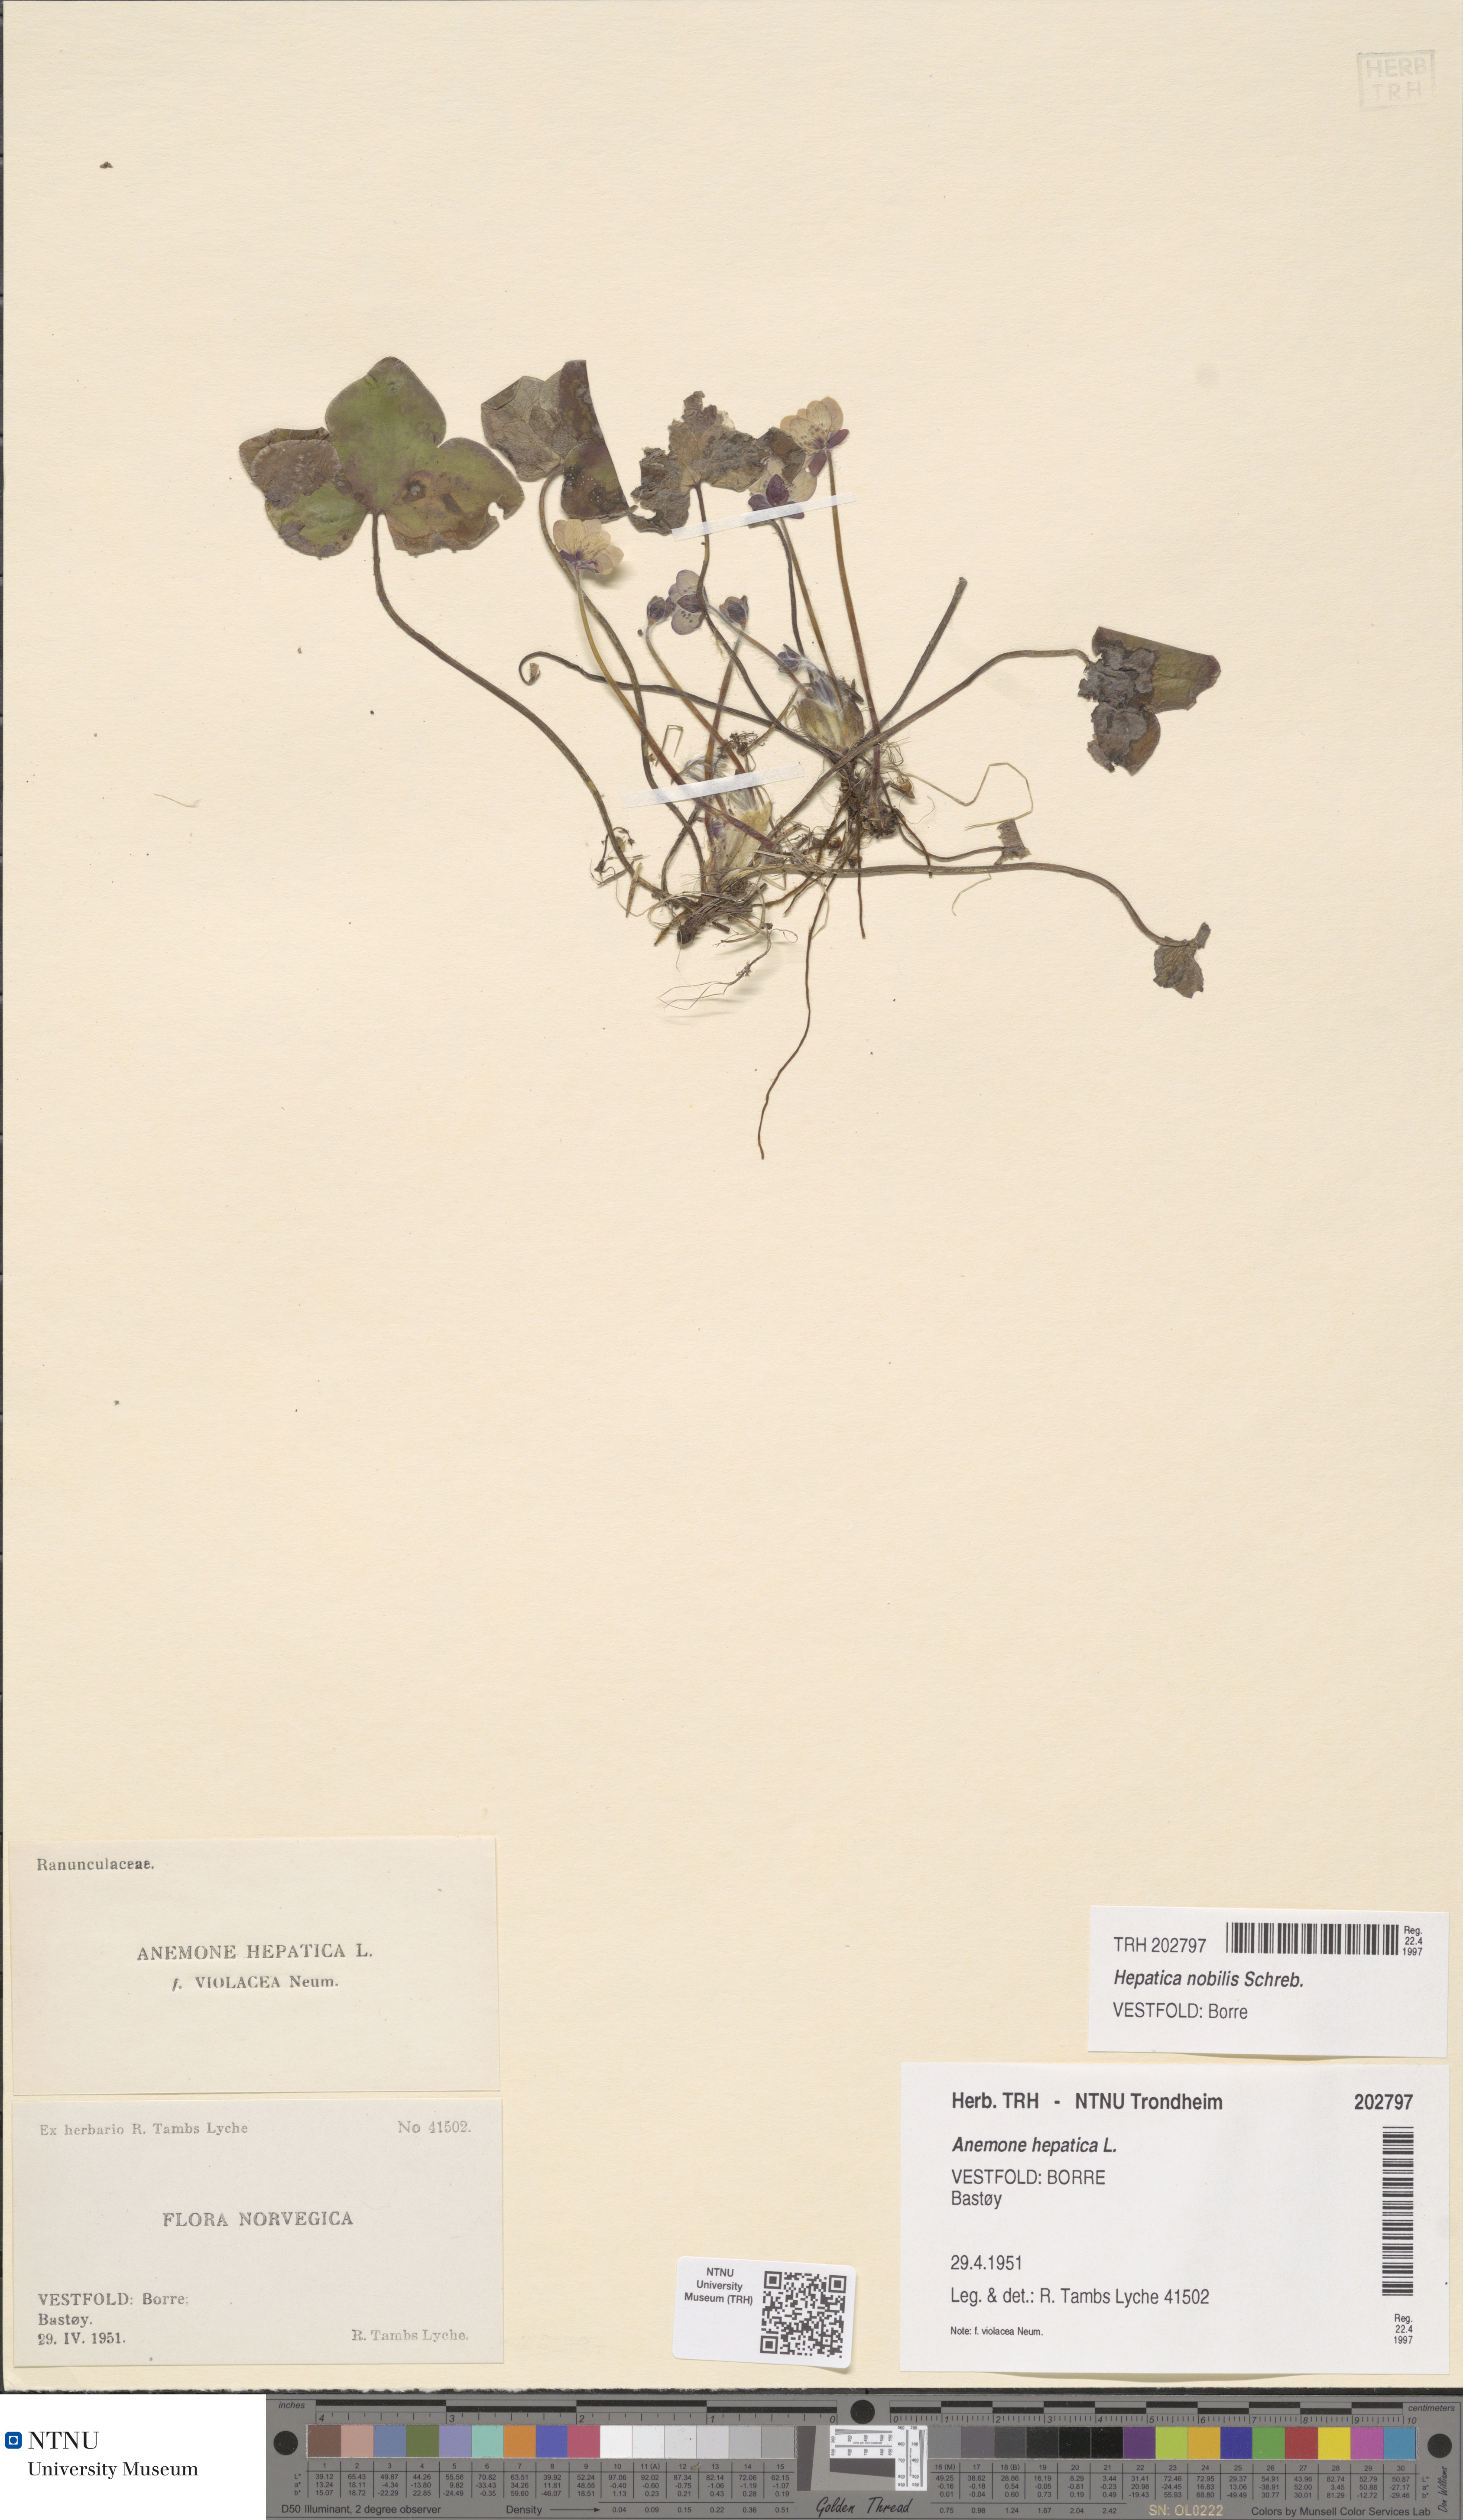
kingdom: Plantae
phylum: Tracheophyta
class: Magnoliopsida
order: Ranunculales
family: Ranunculaceae
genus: Hepatica
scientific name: Hepatica nobilis
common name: Liverleaf
